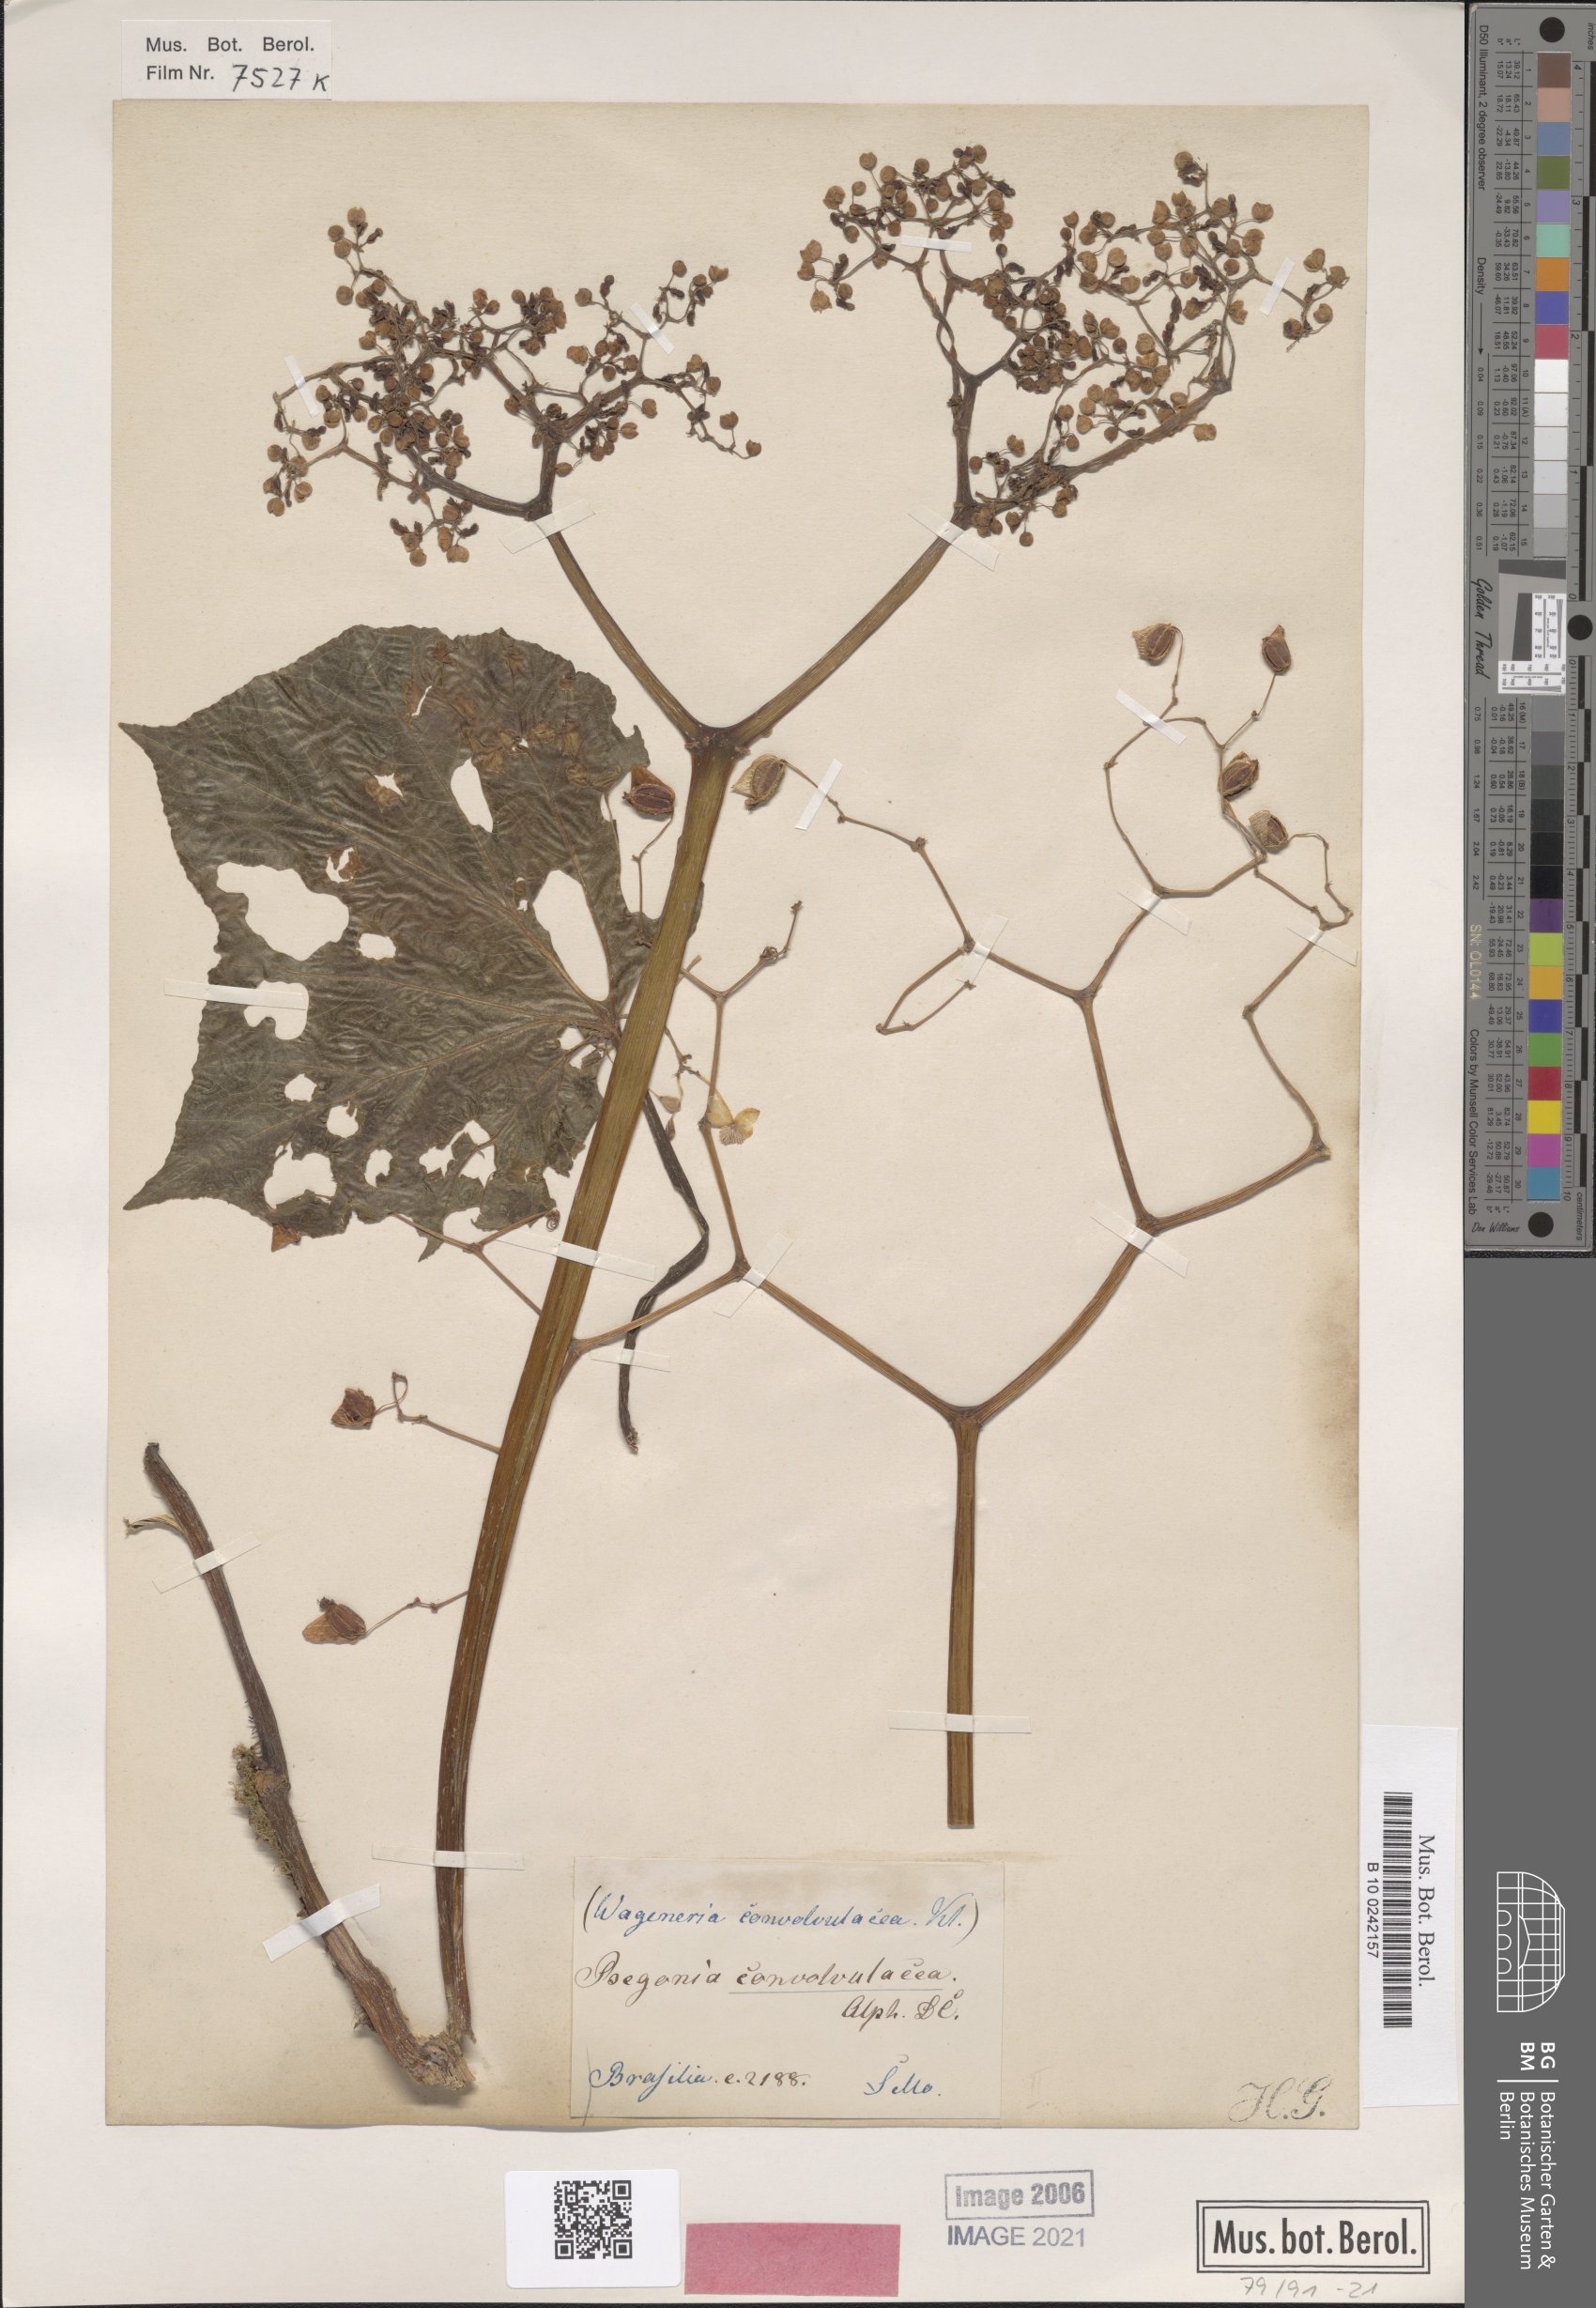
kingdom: Plantae
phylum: Tracheophyta
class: Magnoliopsida
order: Cucurbitales
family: Begoniaceae
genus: Begonia
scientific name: Begonia convolvulacea
